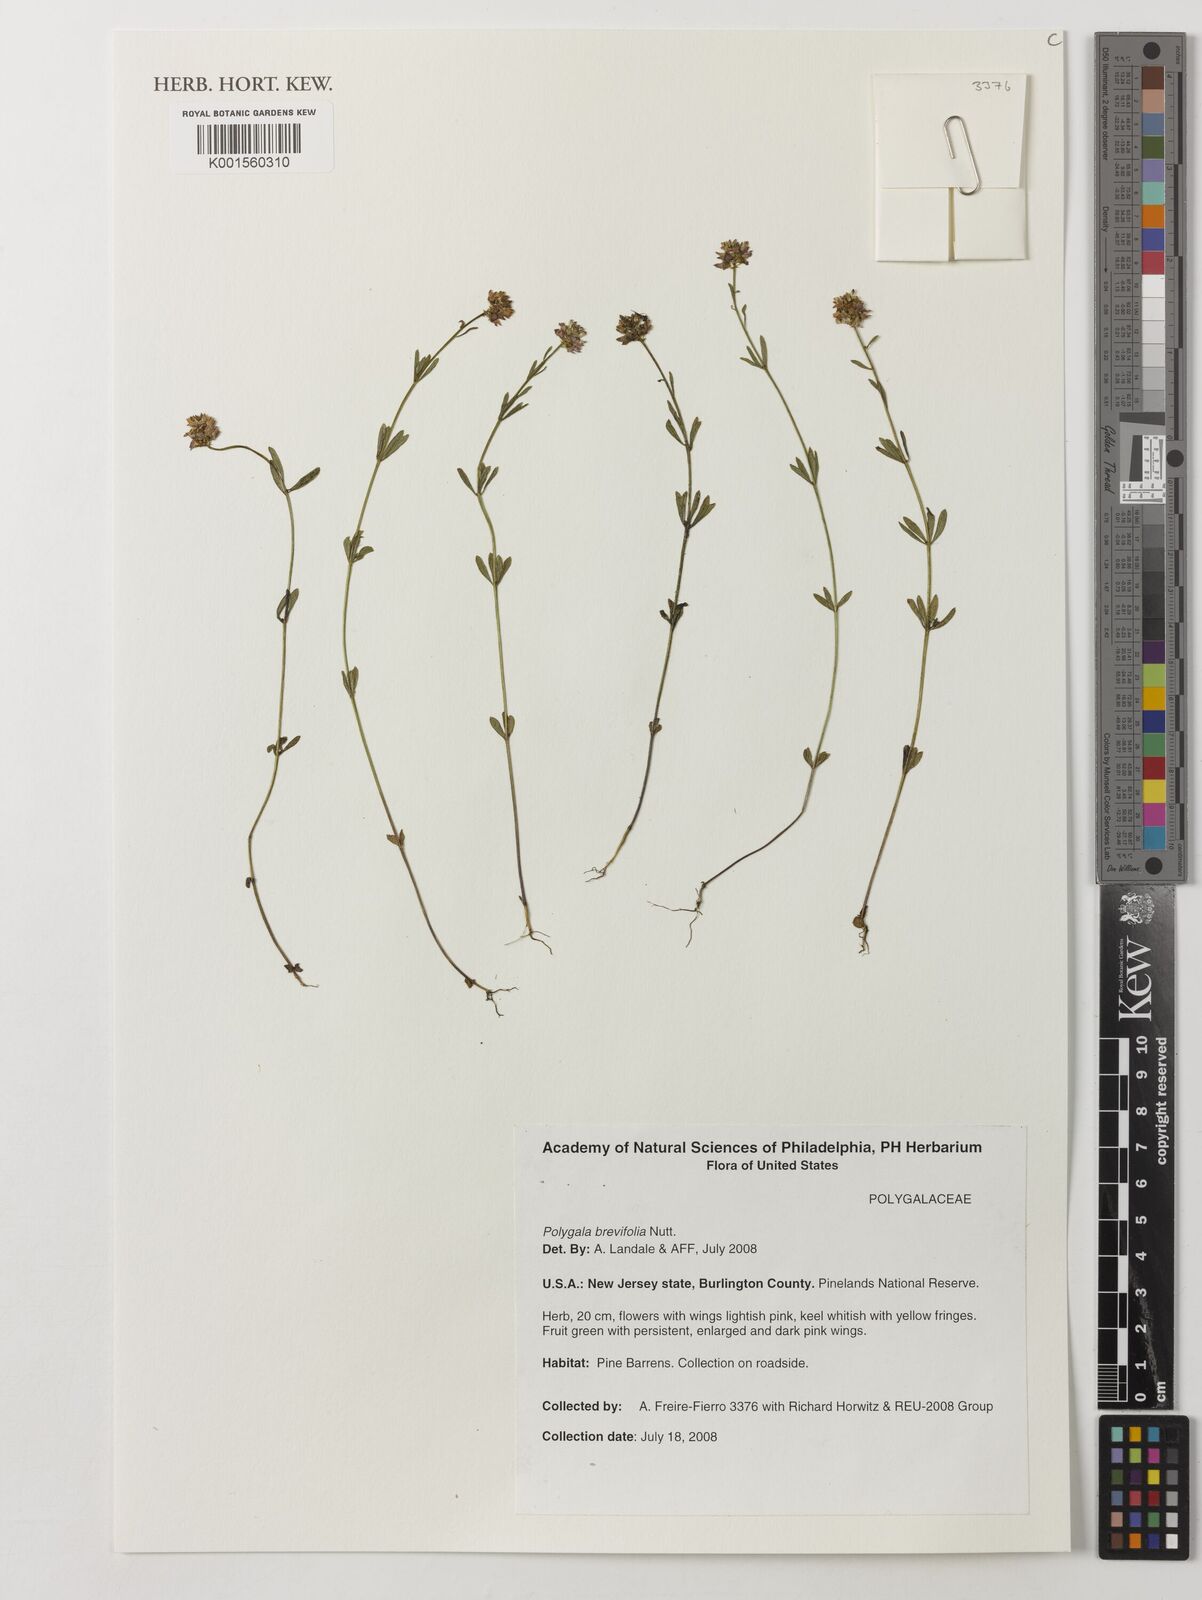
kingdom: Plantae
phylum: Tracheophyta
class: Magnoliopsida
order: Fabales
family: Polygalaceae
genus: Polygala
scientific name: Polygala brevifolia
